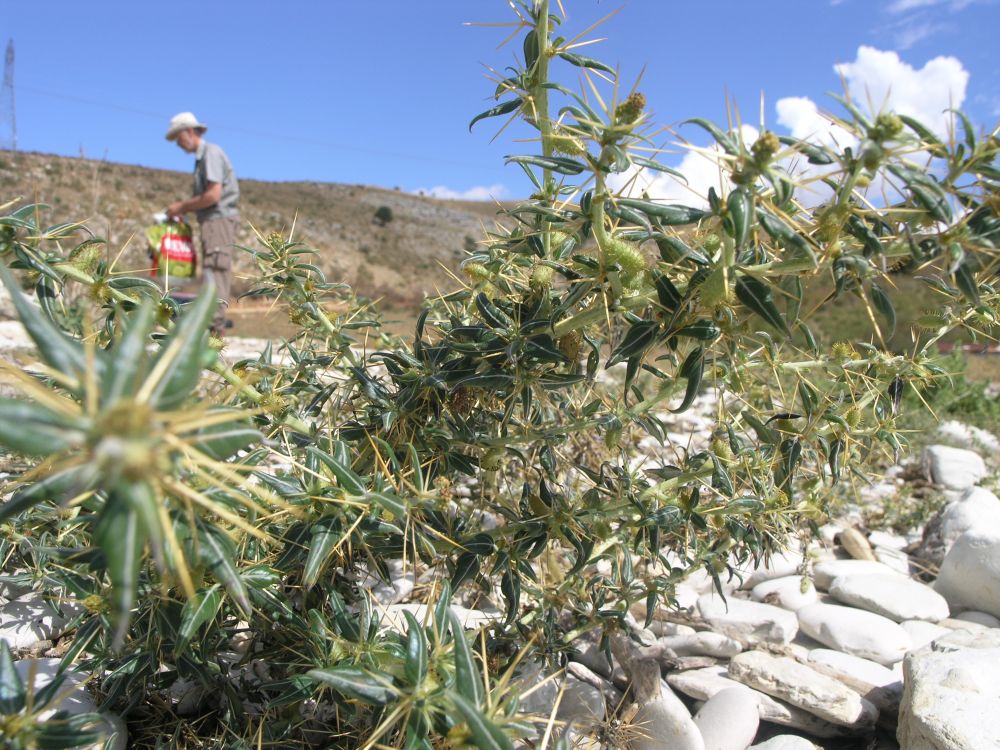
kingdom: Plantae
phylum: Tracheophyta
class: Magnoliopsida
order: Asterales
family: Asteraceae
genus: Xanthium
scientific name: Xanthium spinosum
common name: Spiny cocklebur
